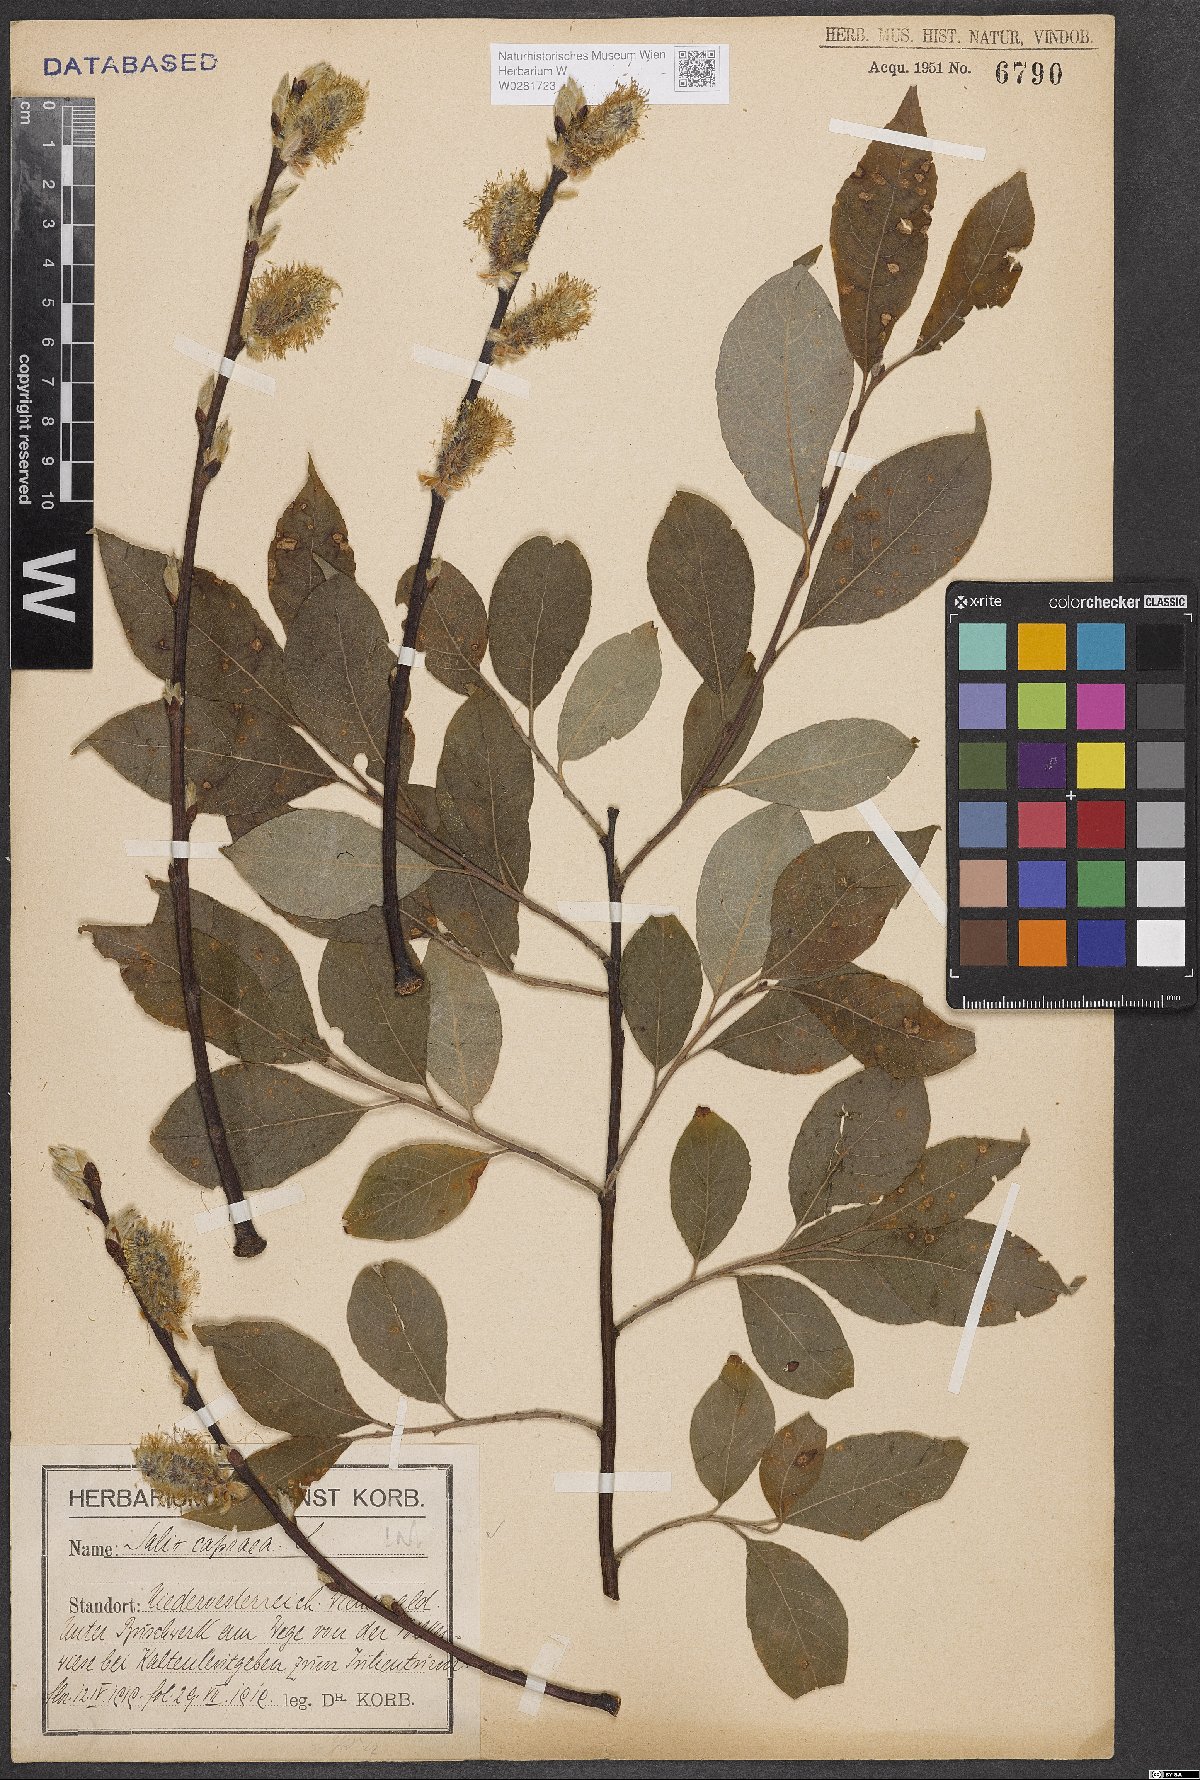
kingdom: Plantae
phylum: Tracheophyta
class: Magnoliopsida
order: Malpighiales
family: Salicaceae
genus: Salix
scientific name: Salix caprea
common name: Goat willow
